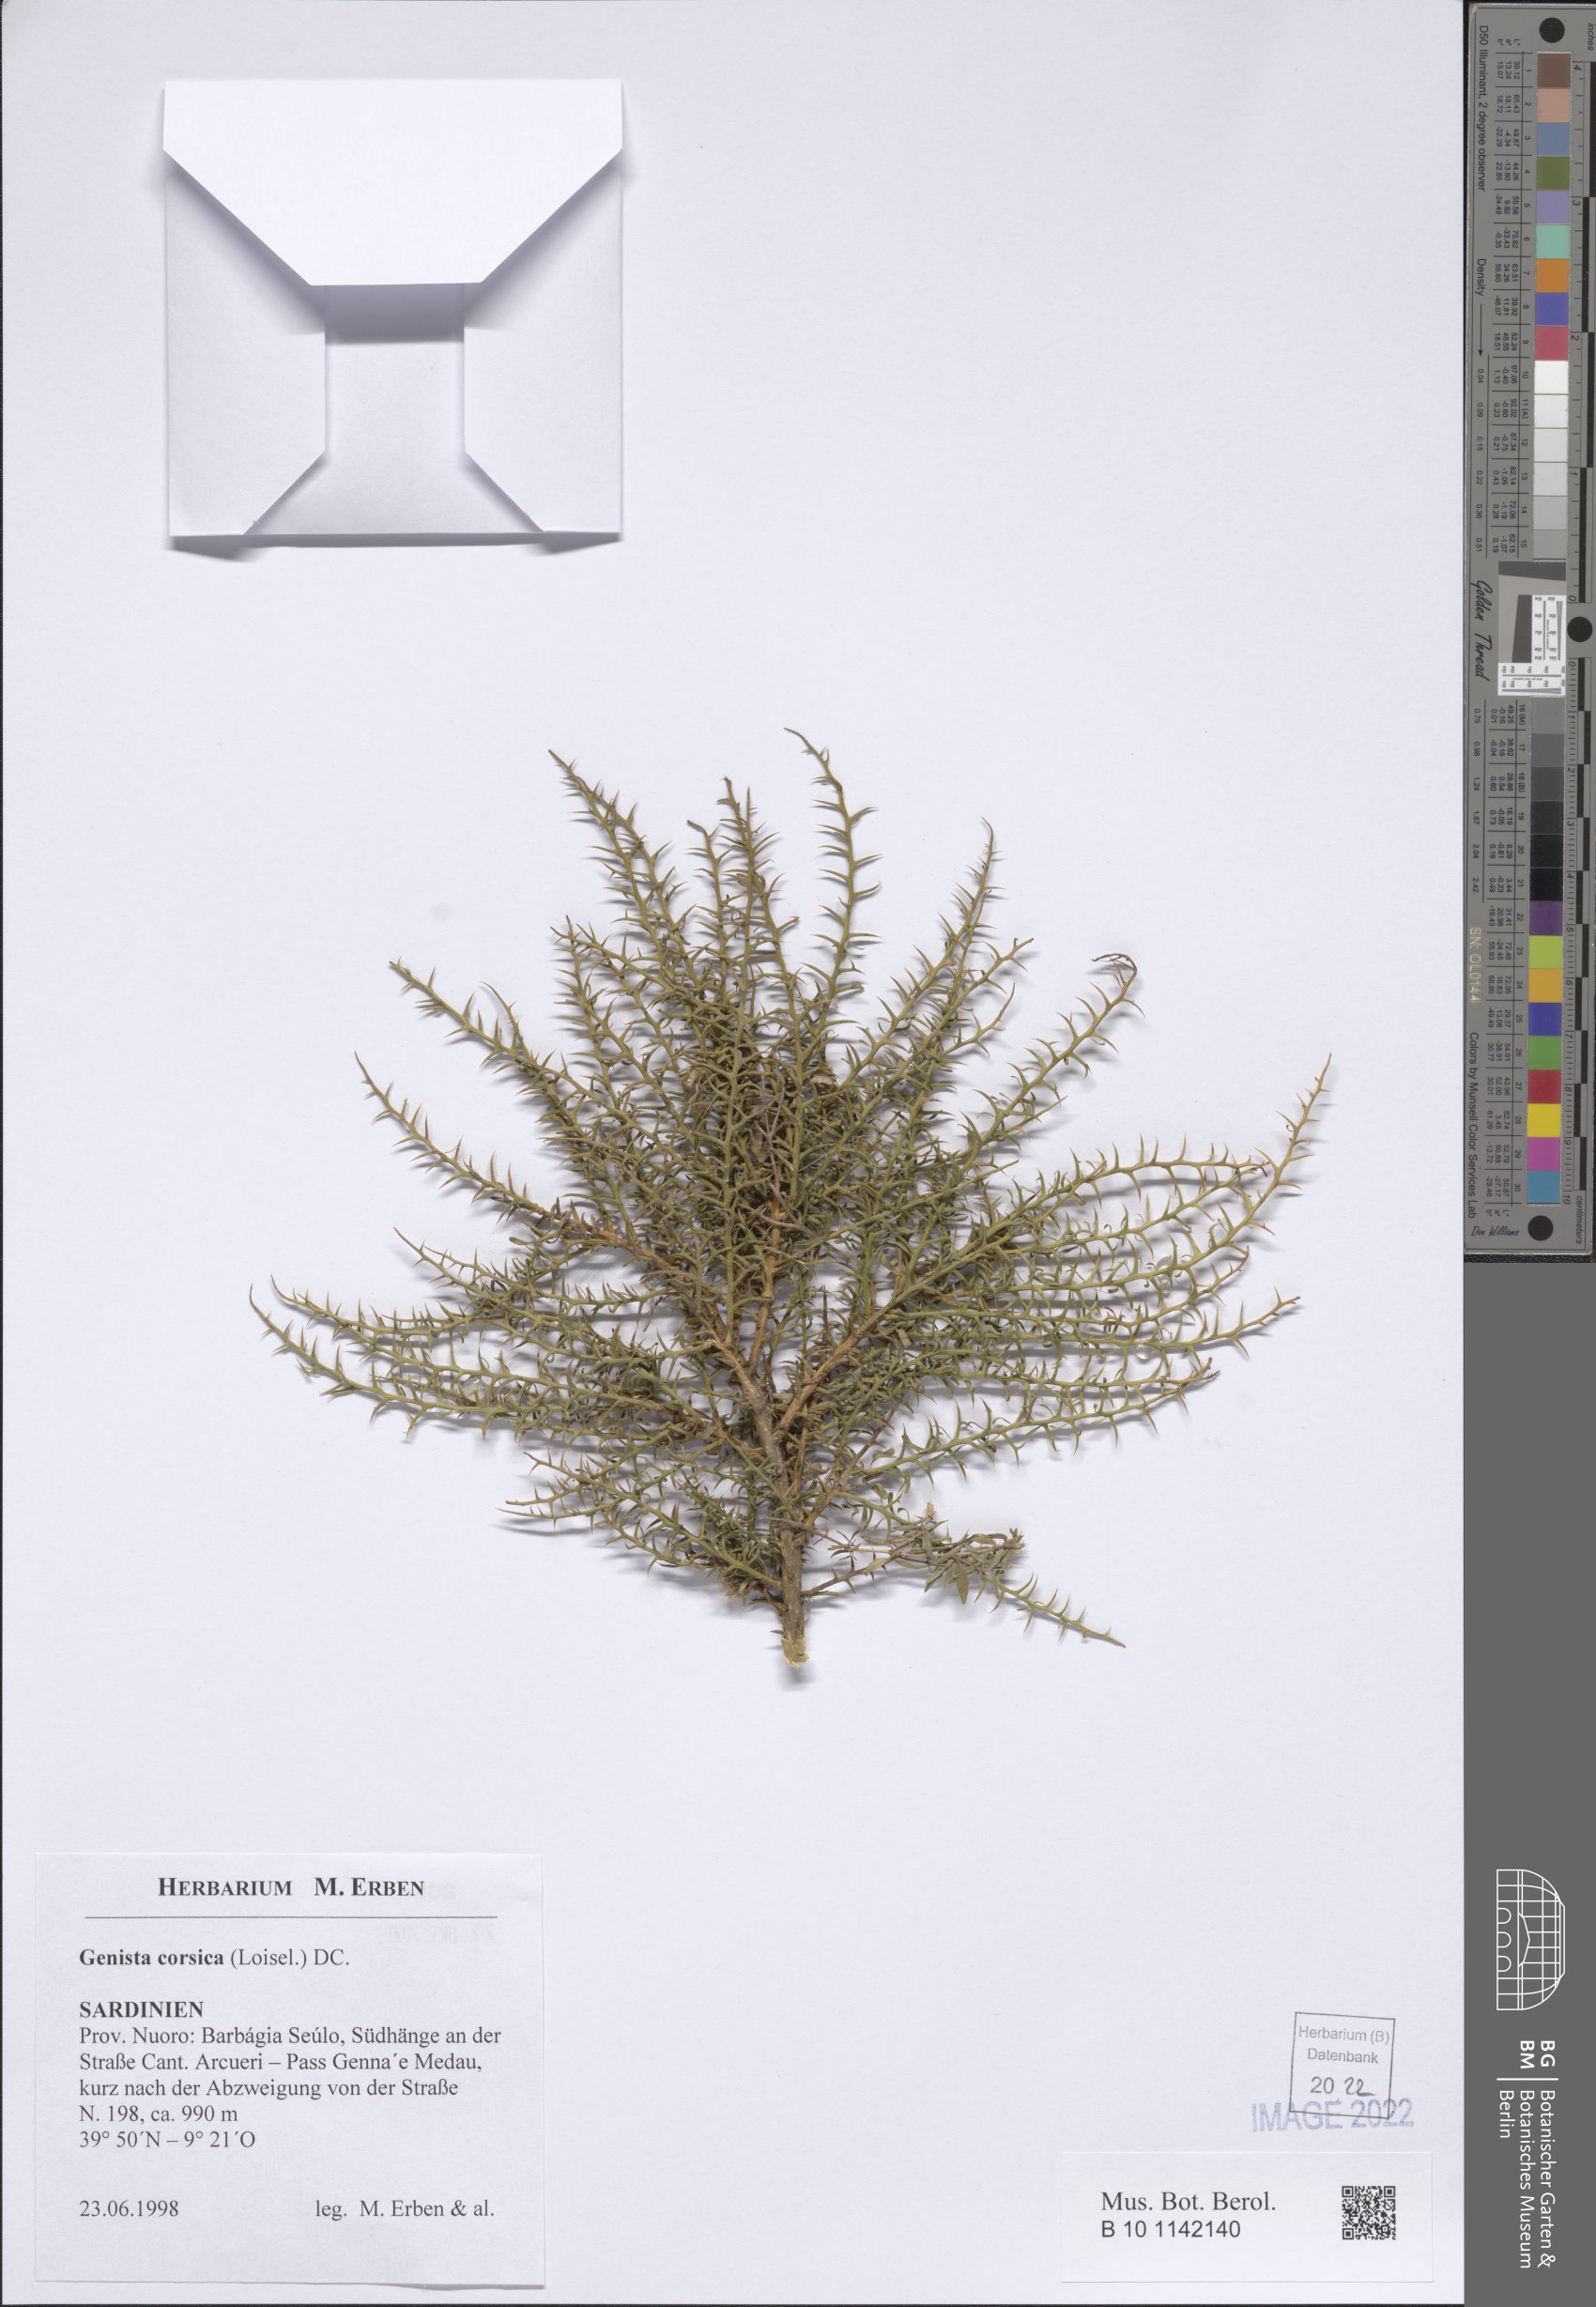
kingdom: Plantae
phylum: Tracheophyta
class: Magnoliopsida
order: Fabales
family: Fabaceae
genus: Genista
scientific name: Genista corsica
